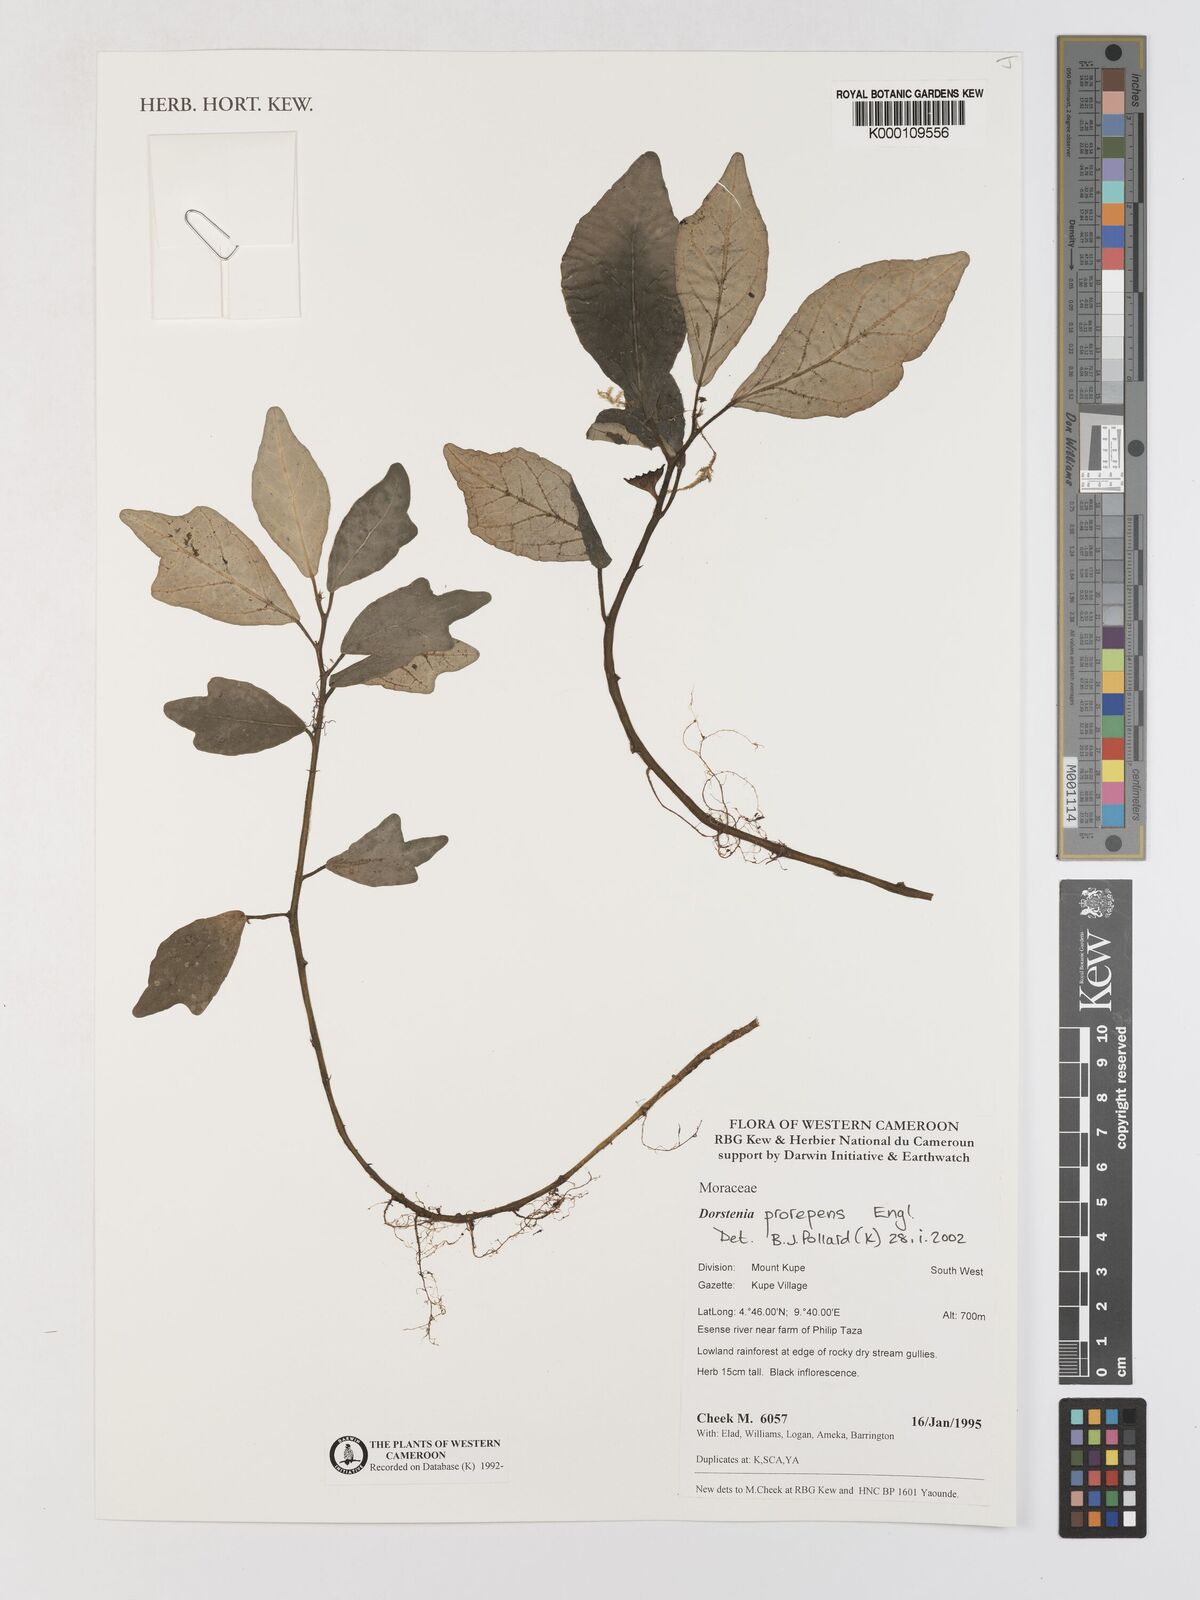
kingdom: Plantae
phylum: Tracheophyta
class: Magnoliopsida
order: Rosales
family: Moraceae
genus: Dorstenia
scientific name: Dorstenia prorepens
